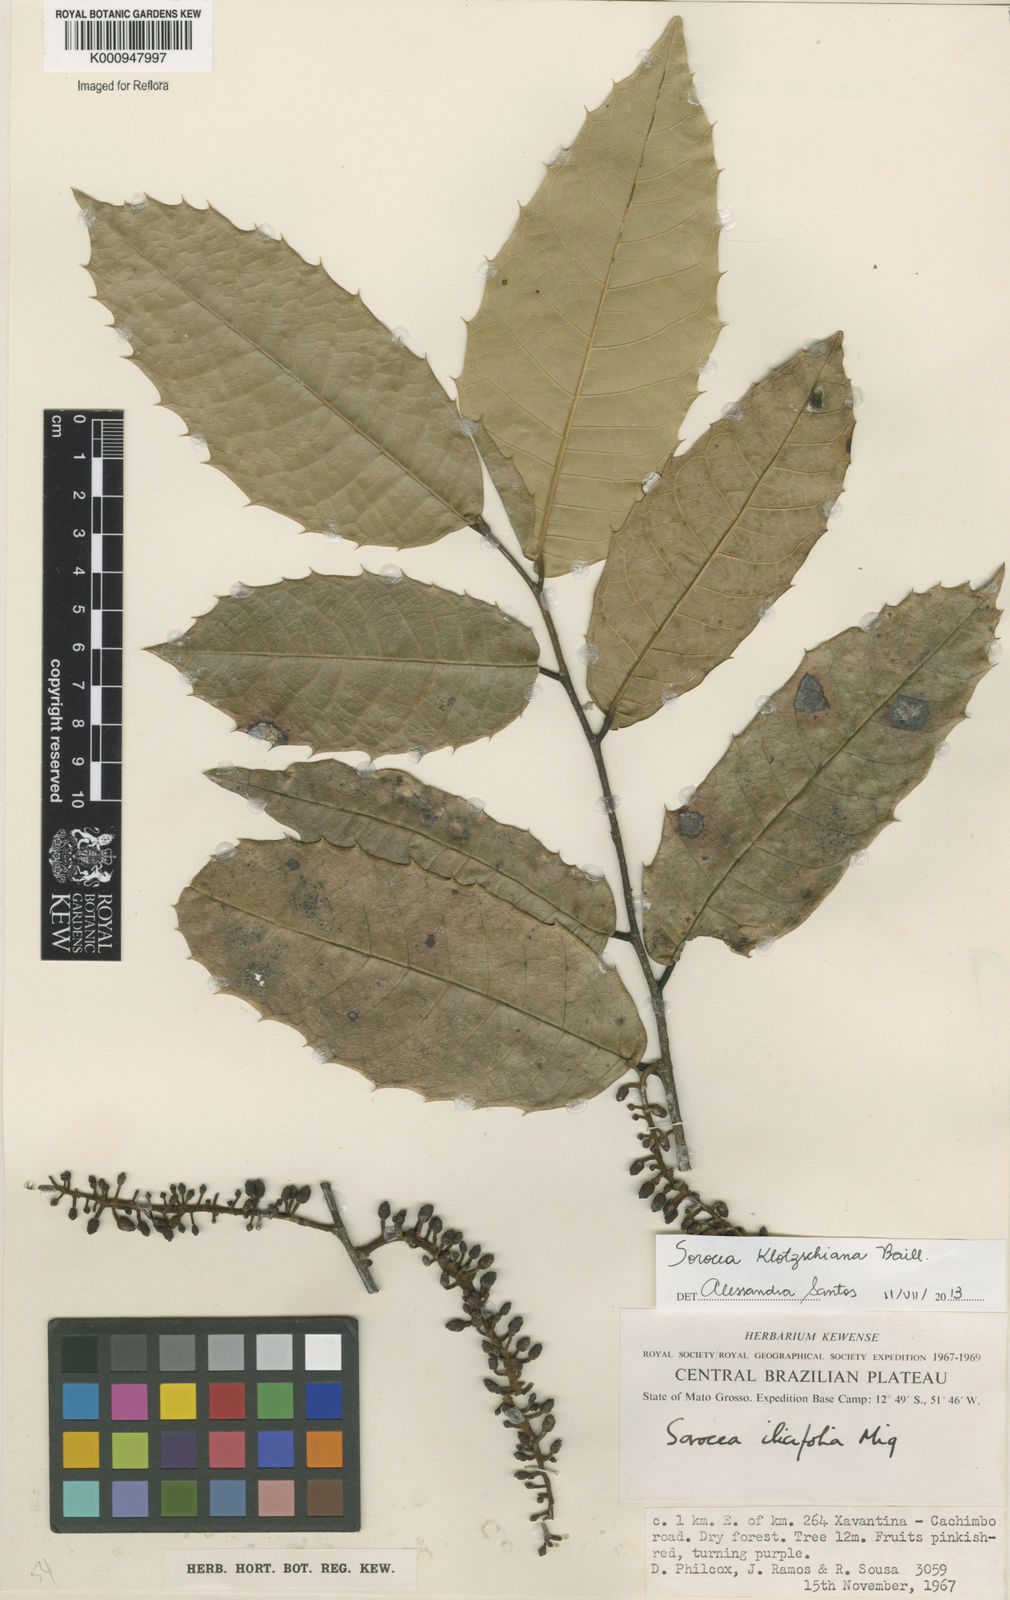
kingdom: Plantae
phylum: Tracheophyta
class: Magnoliopsida
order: Rosales
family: Moraceae
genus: Sorocea
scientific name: Sorocea guilleminiana
